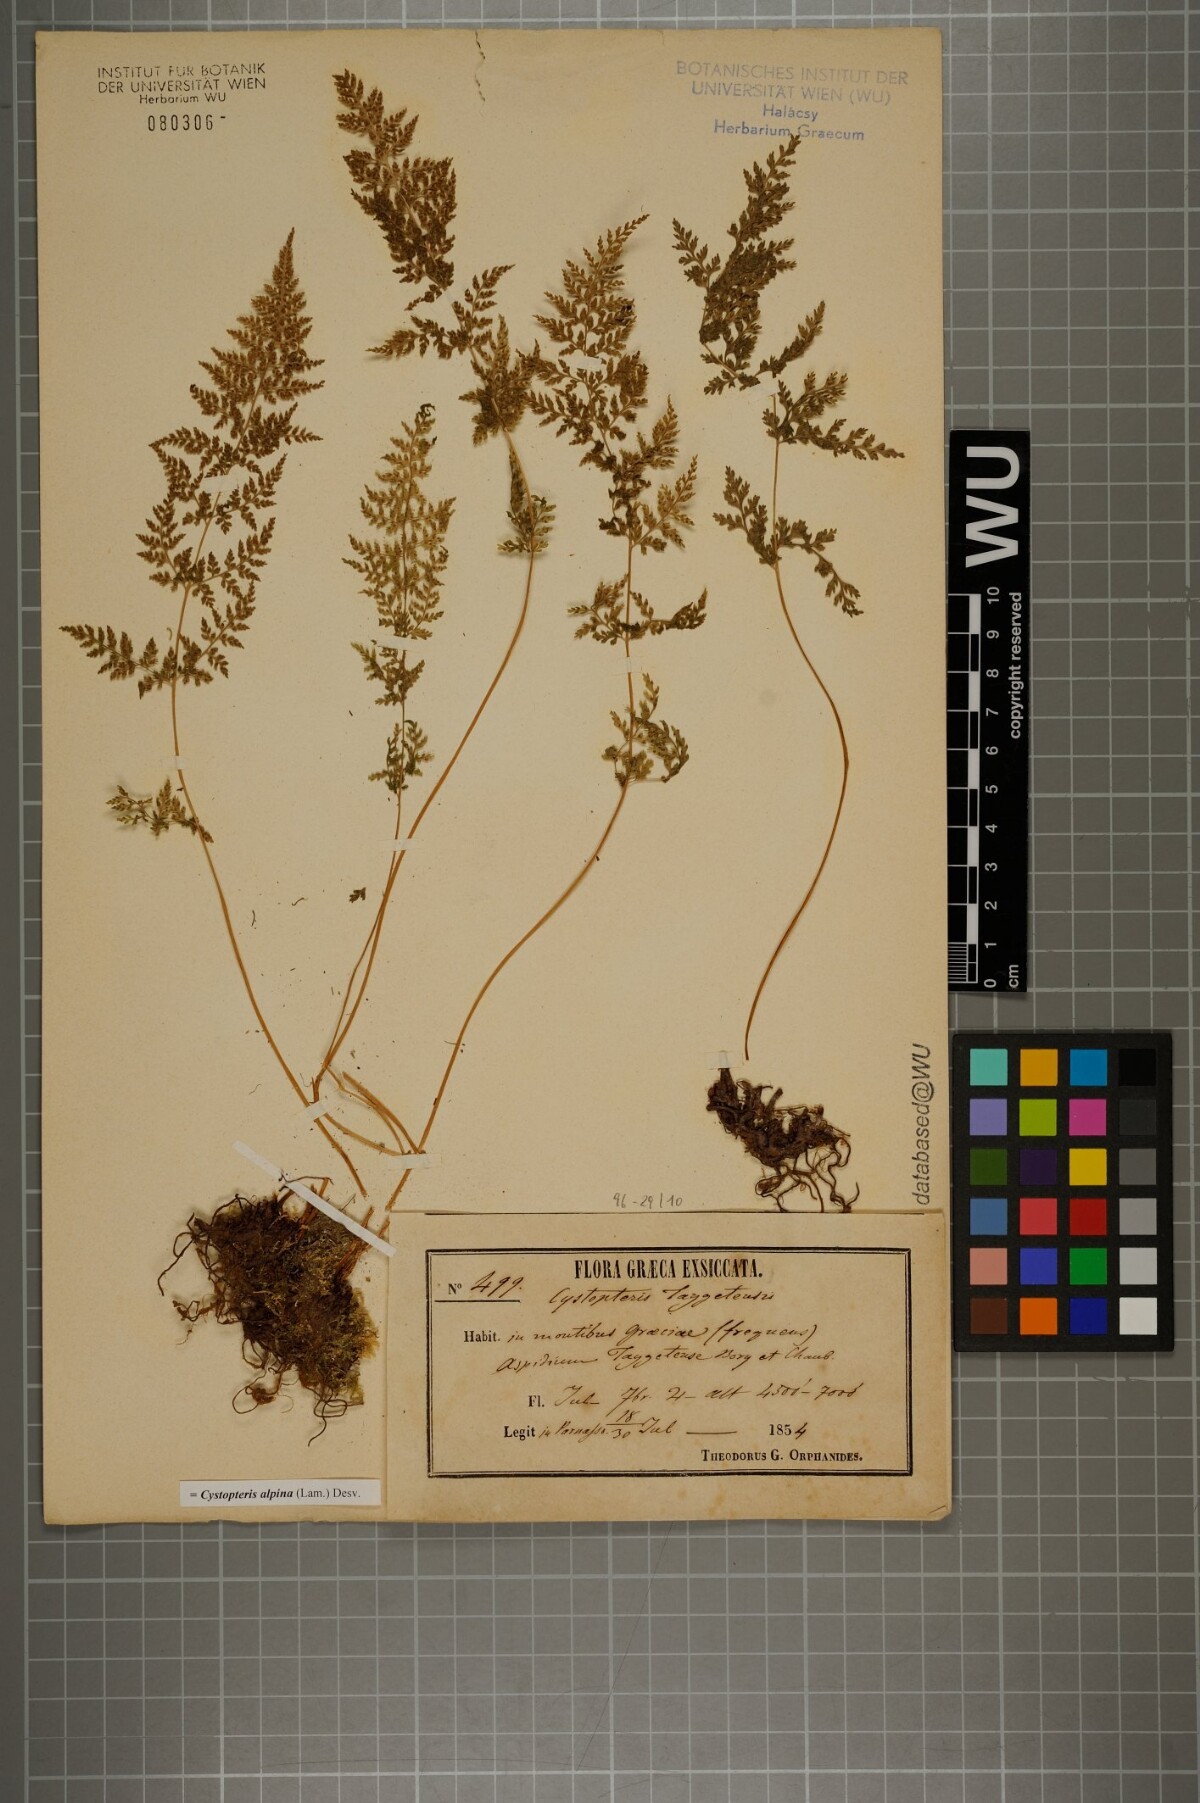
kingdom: Plantae
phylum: Tracheophyta
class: Polypodiopsida
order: Polypodiales
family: Cystopteridaceae
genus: Cystopteris
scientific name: Cystopteris alpina
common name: Alpine bladder-fern
